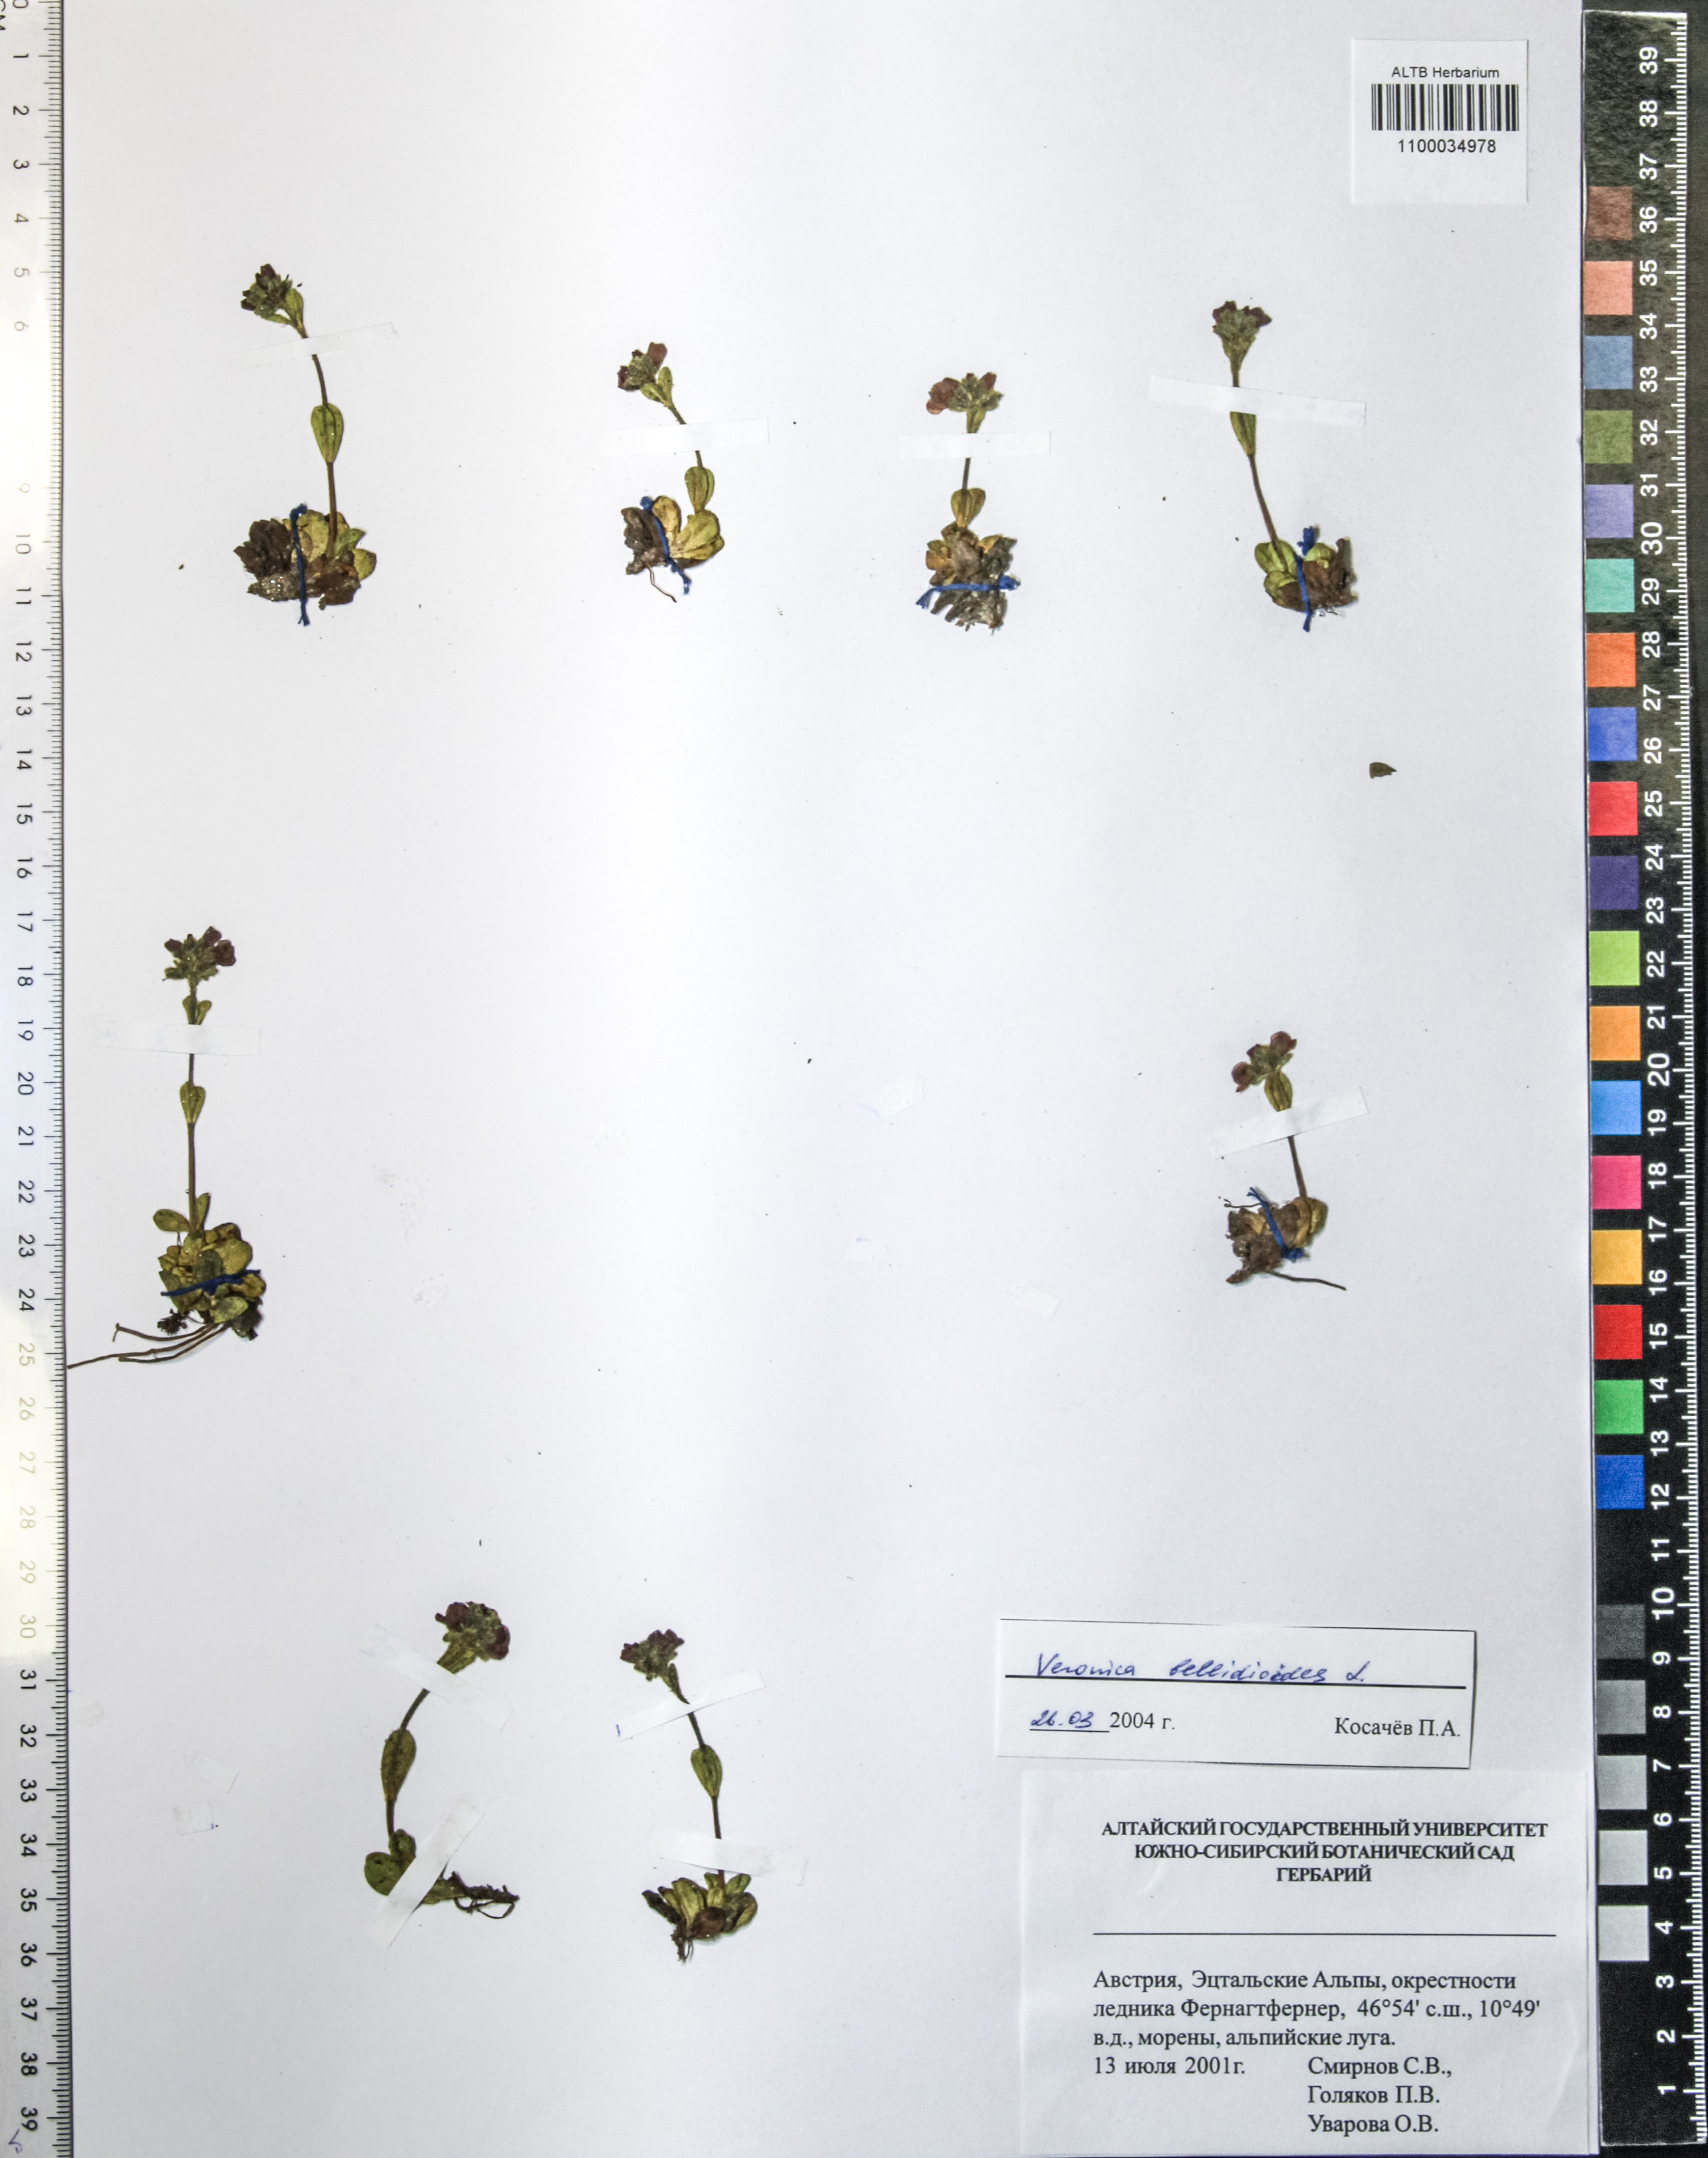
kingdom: Plantae
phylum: Tracheophyta
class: Magnoliopsida
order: Lamiales
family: Plantaginaceae
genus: Veronica
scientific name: Veronica bellidioides
